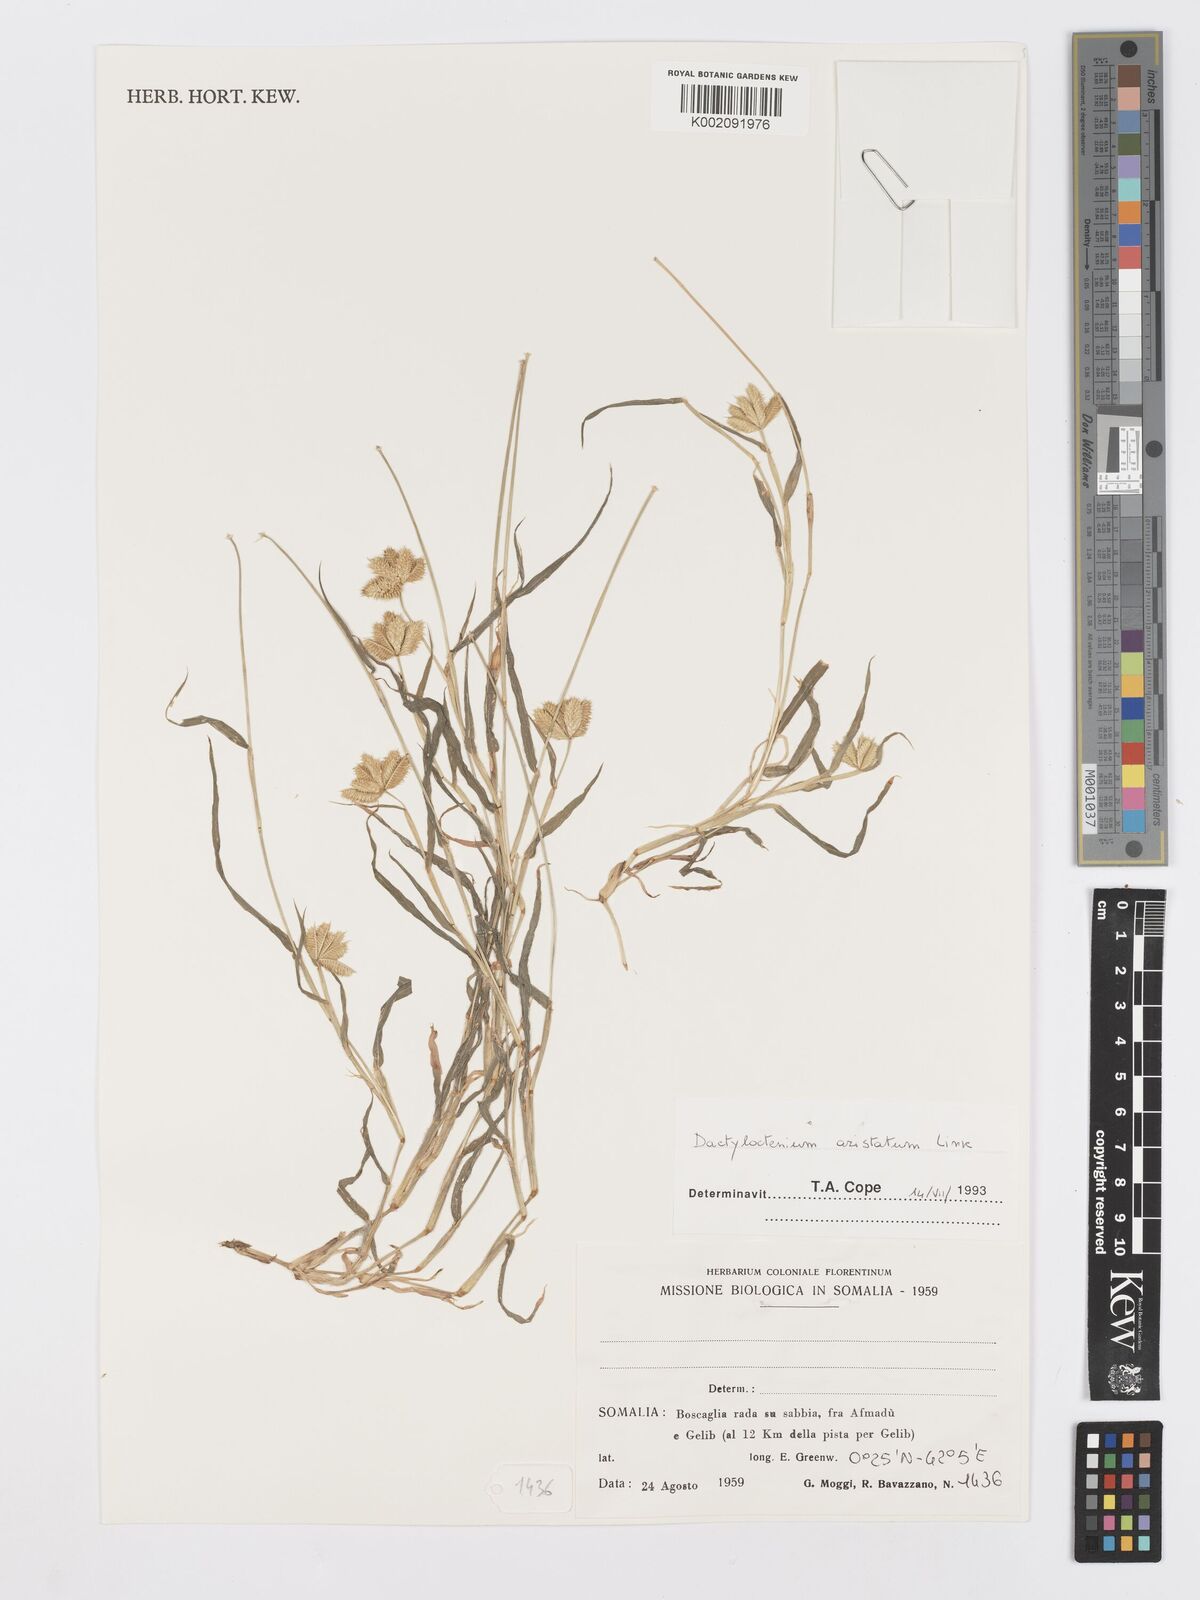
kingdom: Plantae
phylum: Tracheophyta
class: Liliopsida
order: Poales
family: Poaceae
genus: Dactyloctenium
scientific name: Dactyloctenium aristatum
